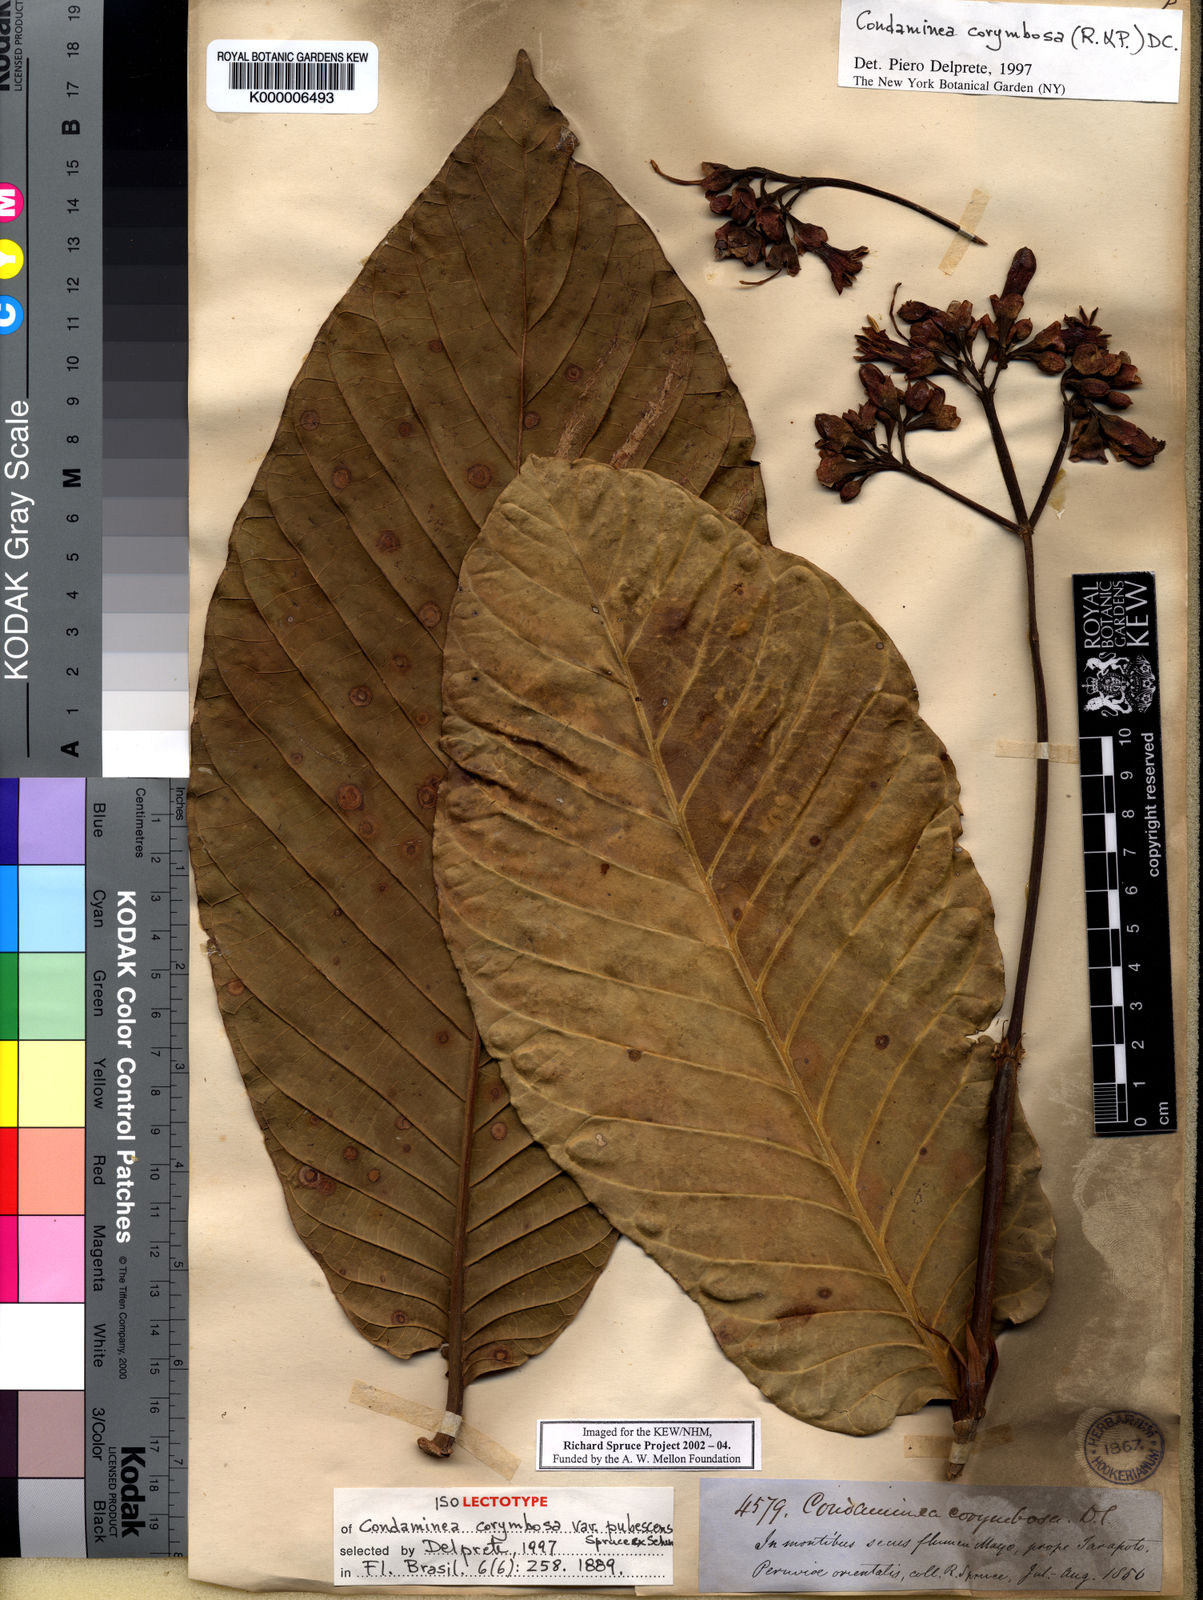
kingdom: Plantae
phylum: Tracheophyta
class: Magnoliopsida
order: Gentianales
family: Rubiaceae
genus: Condaminea
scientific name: Condaminea corymbosa
